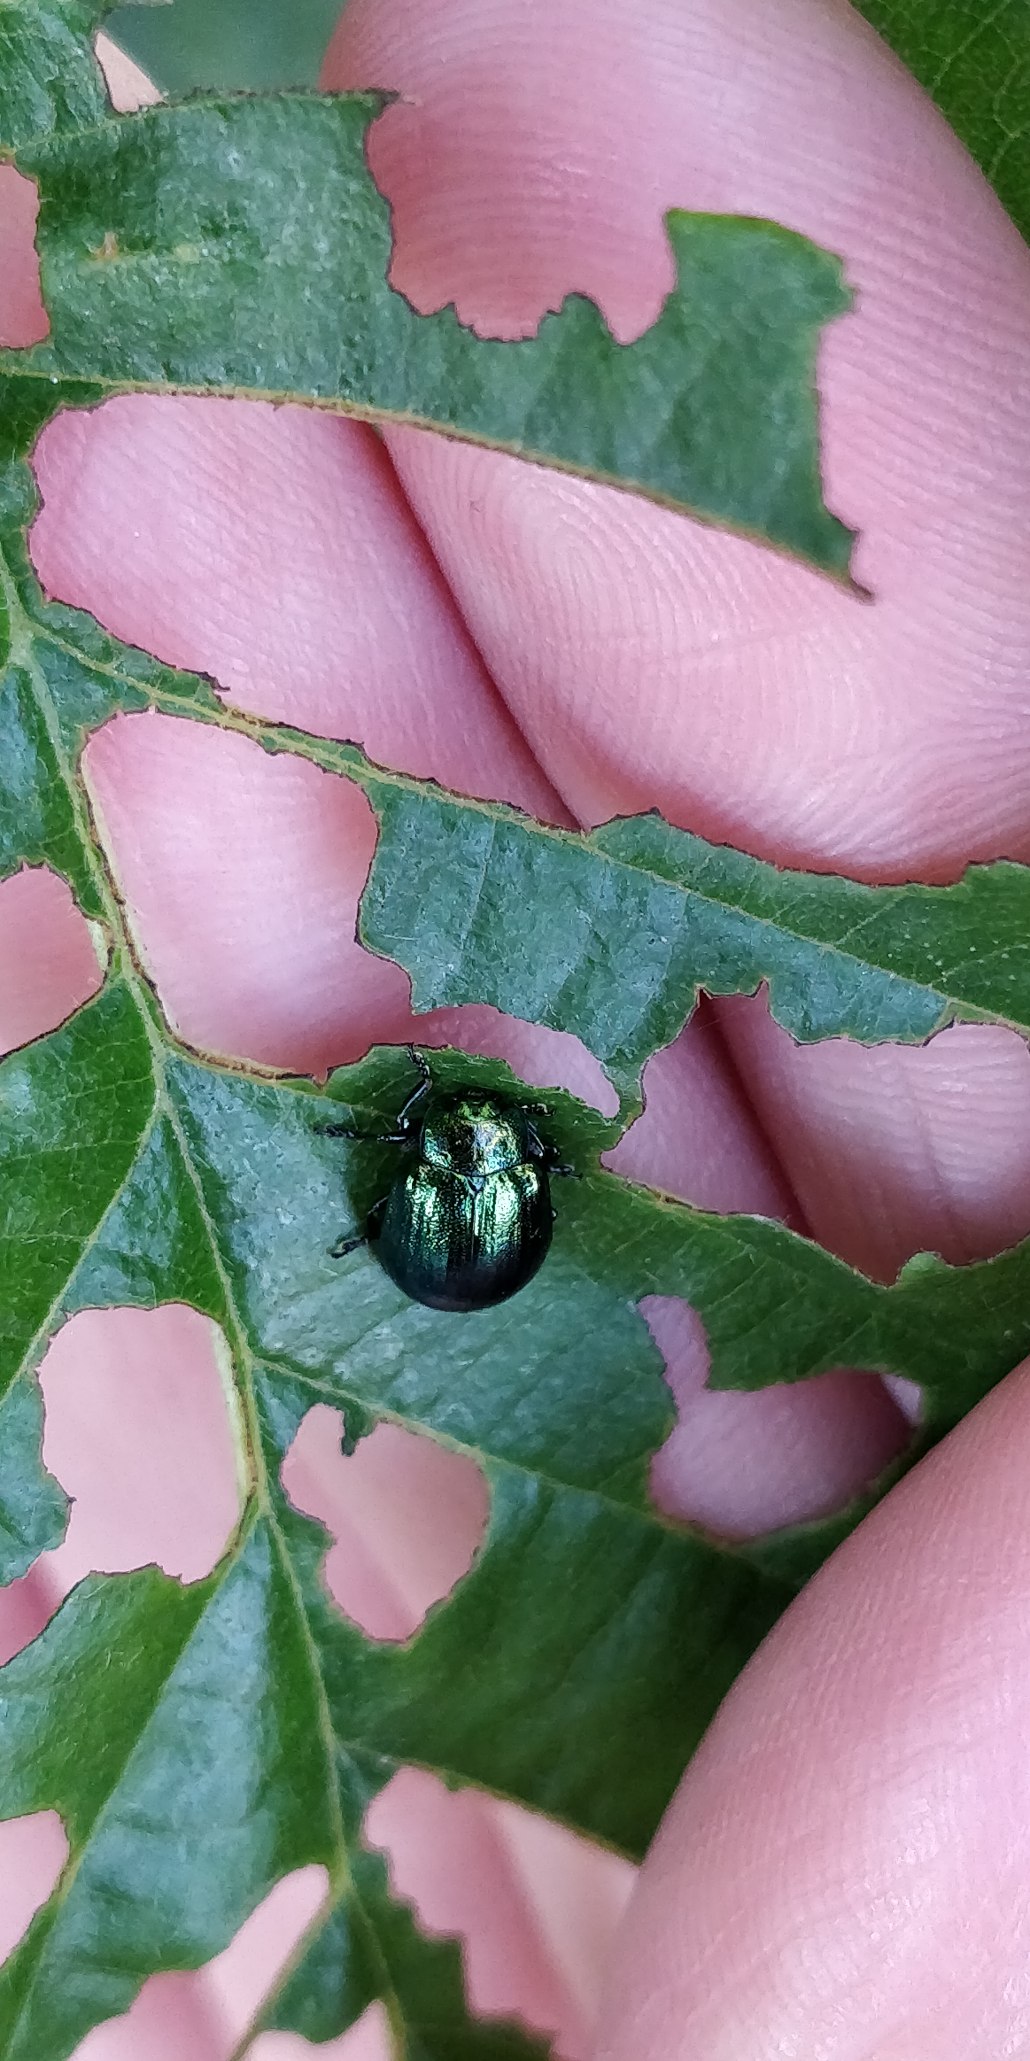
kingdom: Animalia
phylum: Arthropoda
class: Insecta
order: Coleoptera
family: Chrysomelidae
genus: Plagiosterna
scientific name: Plagiosterna aenea
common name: Blågrøn ellebladbille
